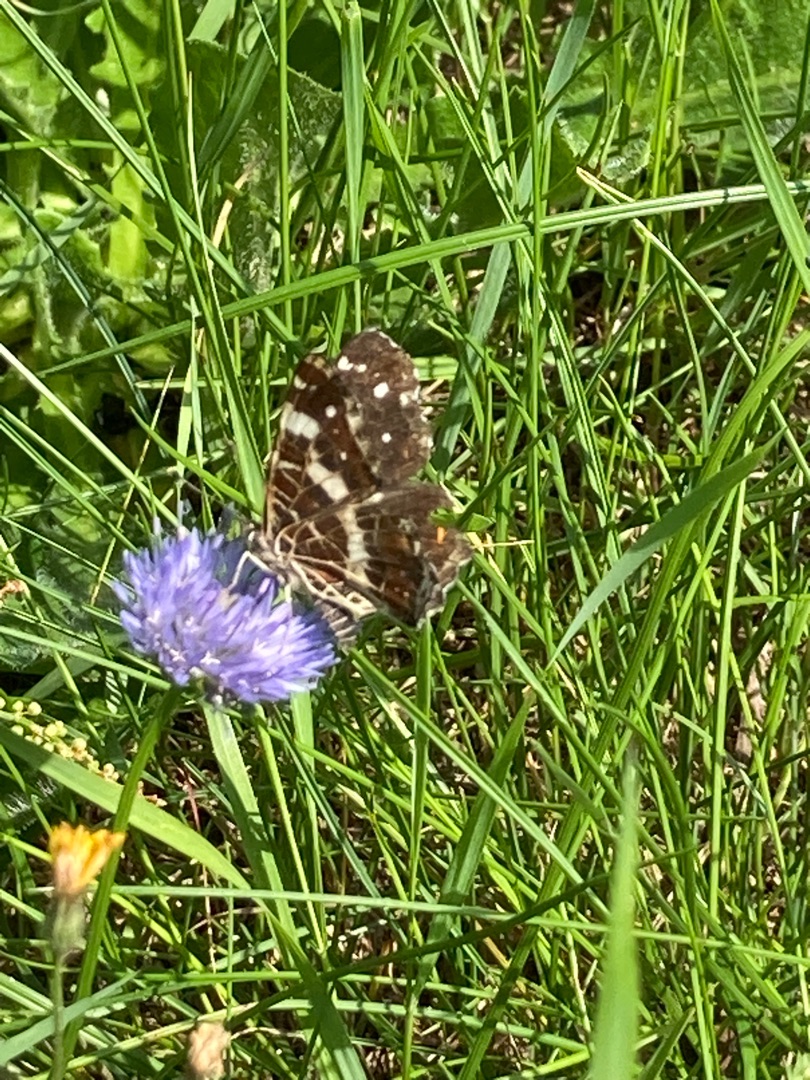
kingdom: Animalia
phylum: Arthropoda
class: Insecta
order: Lepidoptera
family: Nymphalidae
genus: Araschnia
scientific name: Araschnia levana
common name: Nældesommerfugl
